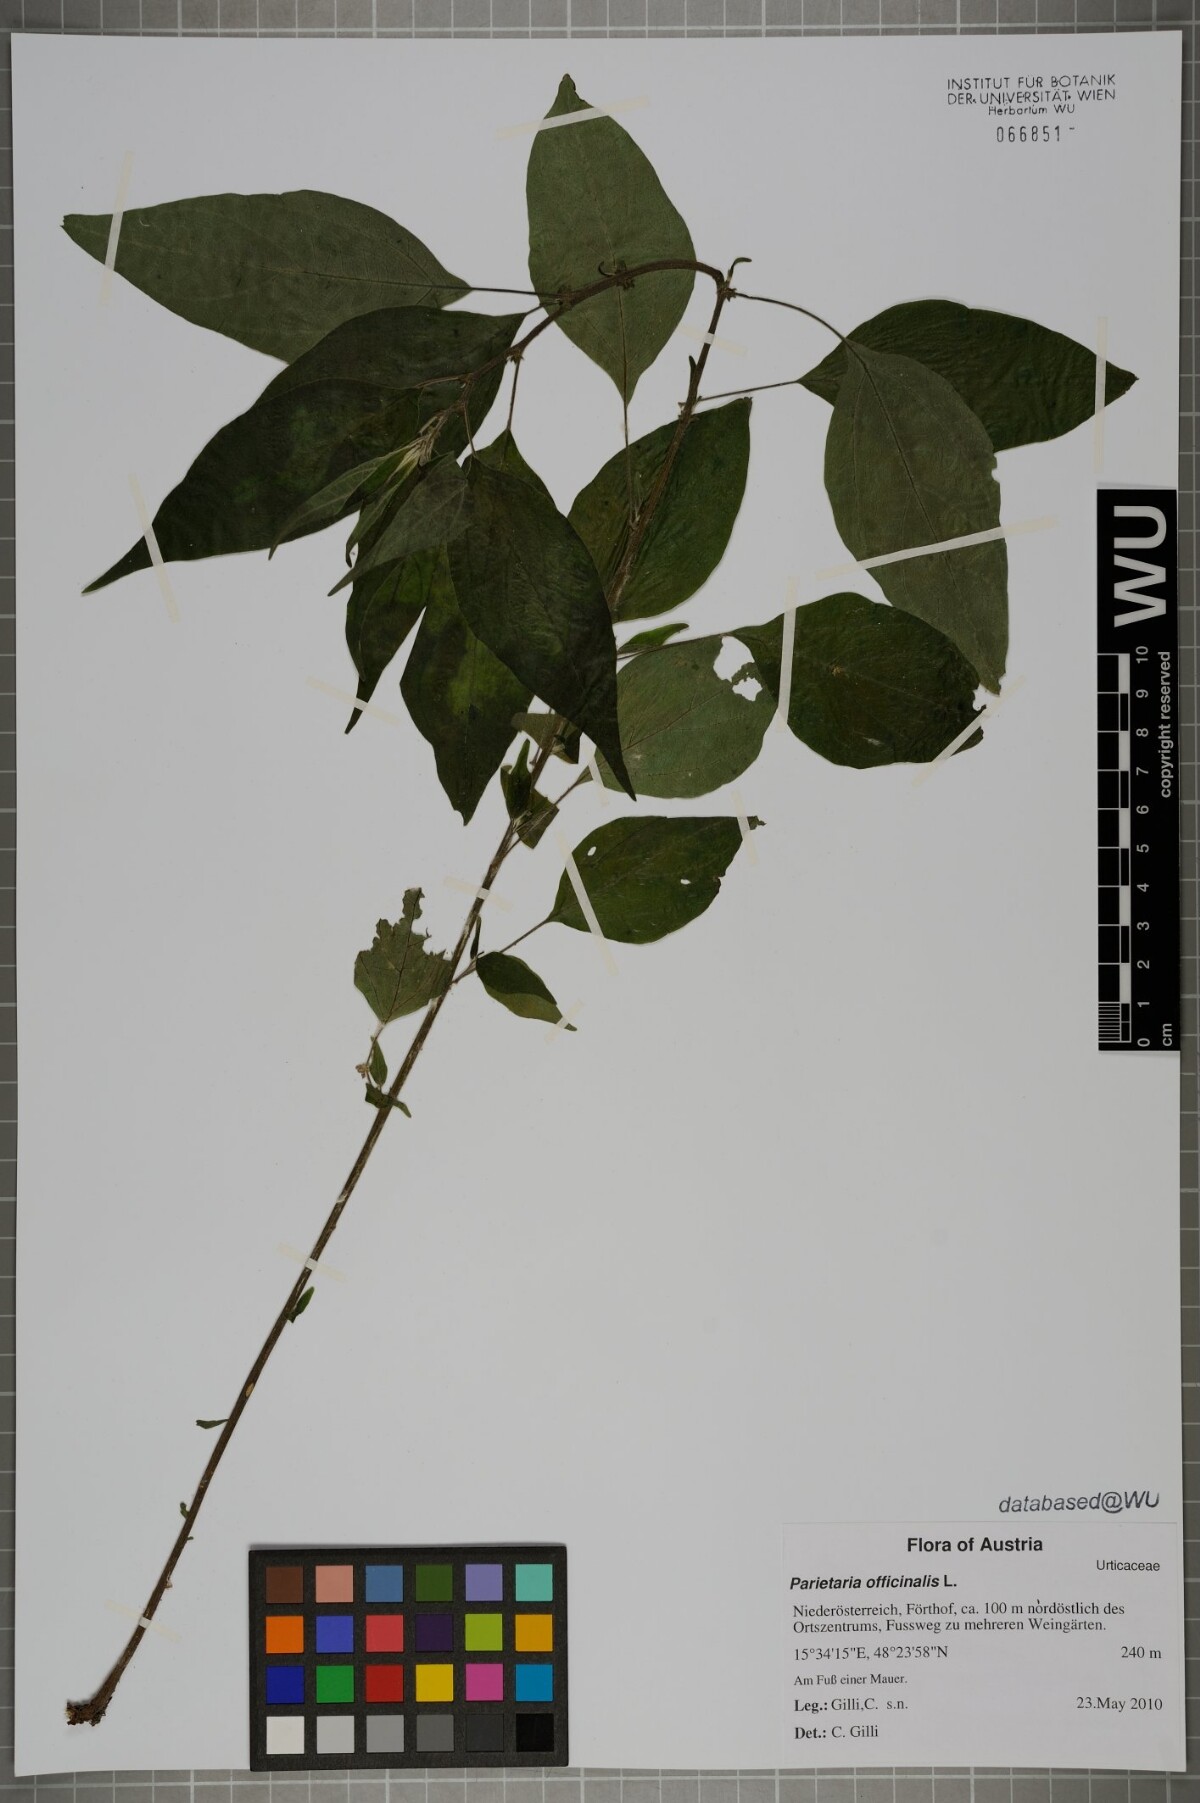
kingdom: Plantae
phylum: Tracheophyta
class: Magnoliopsida
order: Rosales
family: Urticaceae
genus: Parietaria
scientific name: Parietaria officinalis
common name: Eastern pellitory-of-the-wall
